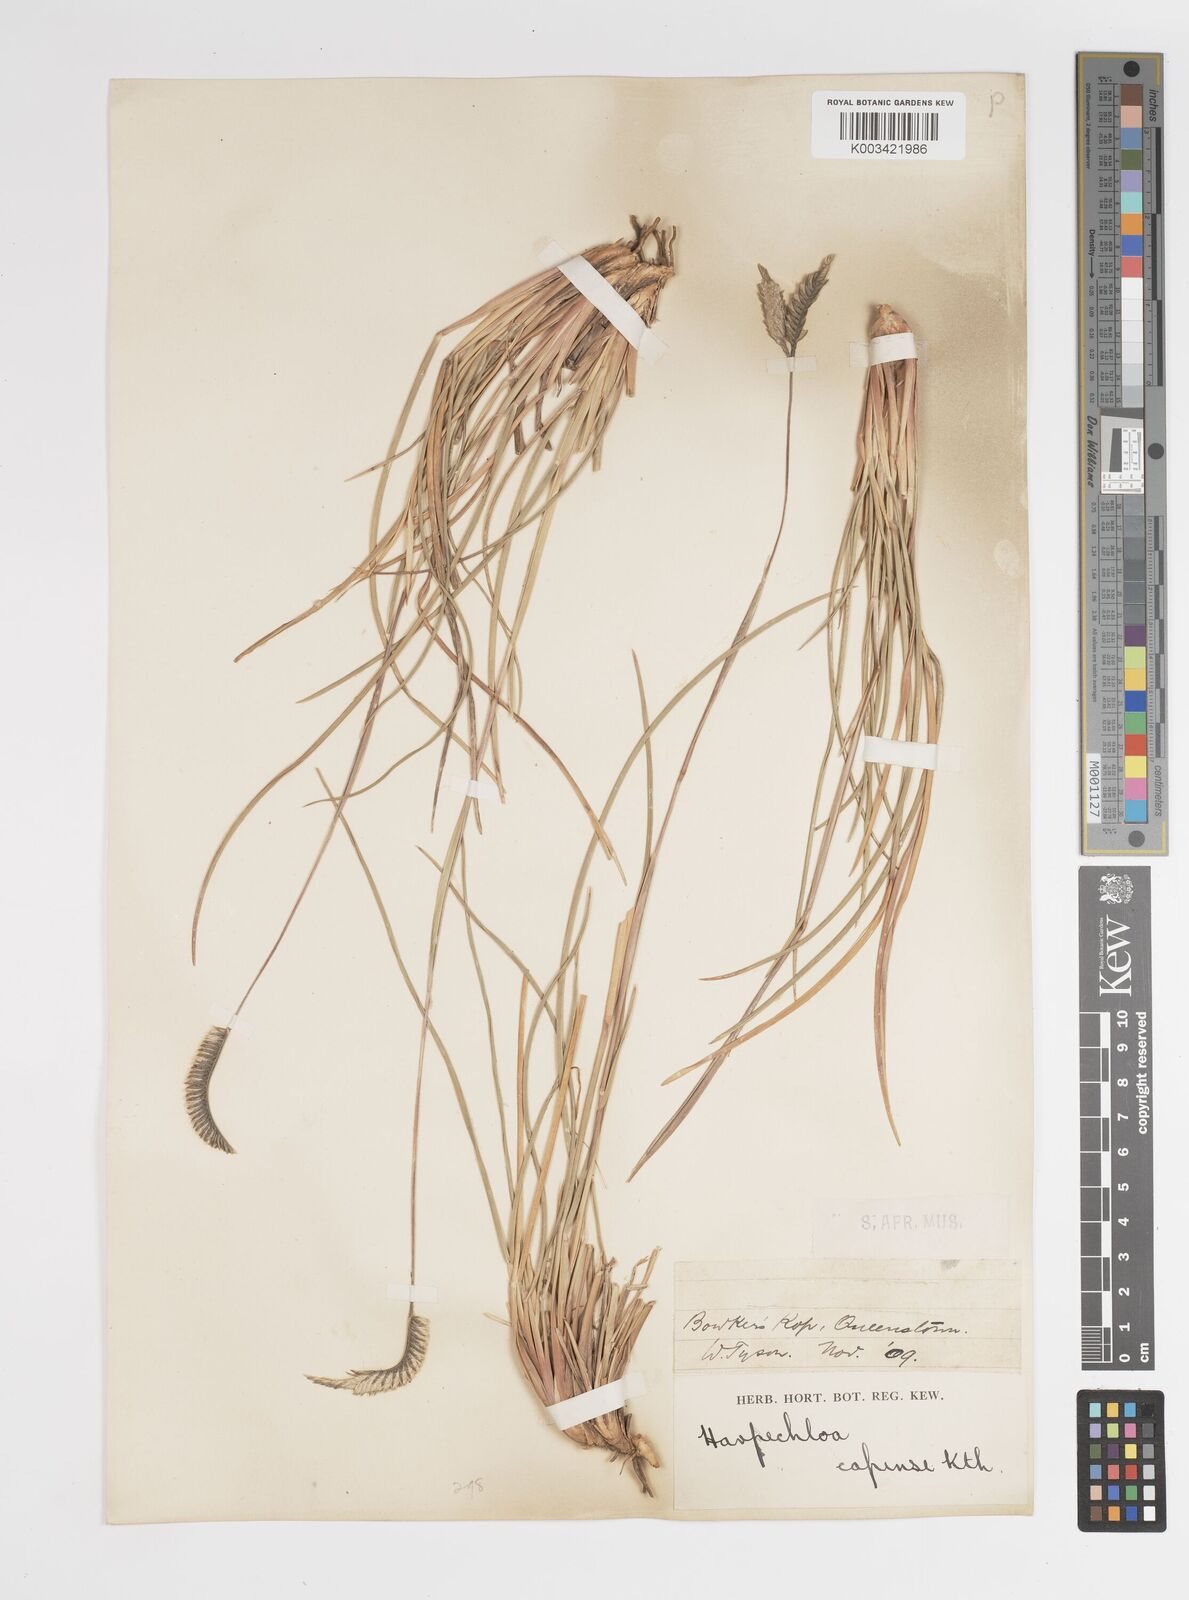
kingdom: Plantae
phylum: Tracheophyta
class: Liliopsida
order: Poales
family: Poaceae
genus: Harpochloa
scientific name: Harpochloa falx
